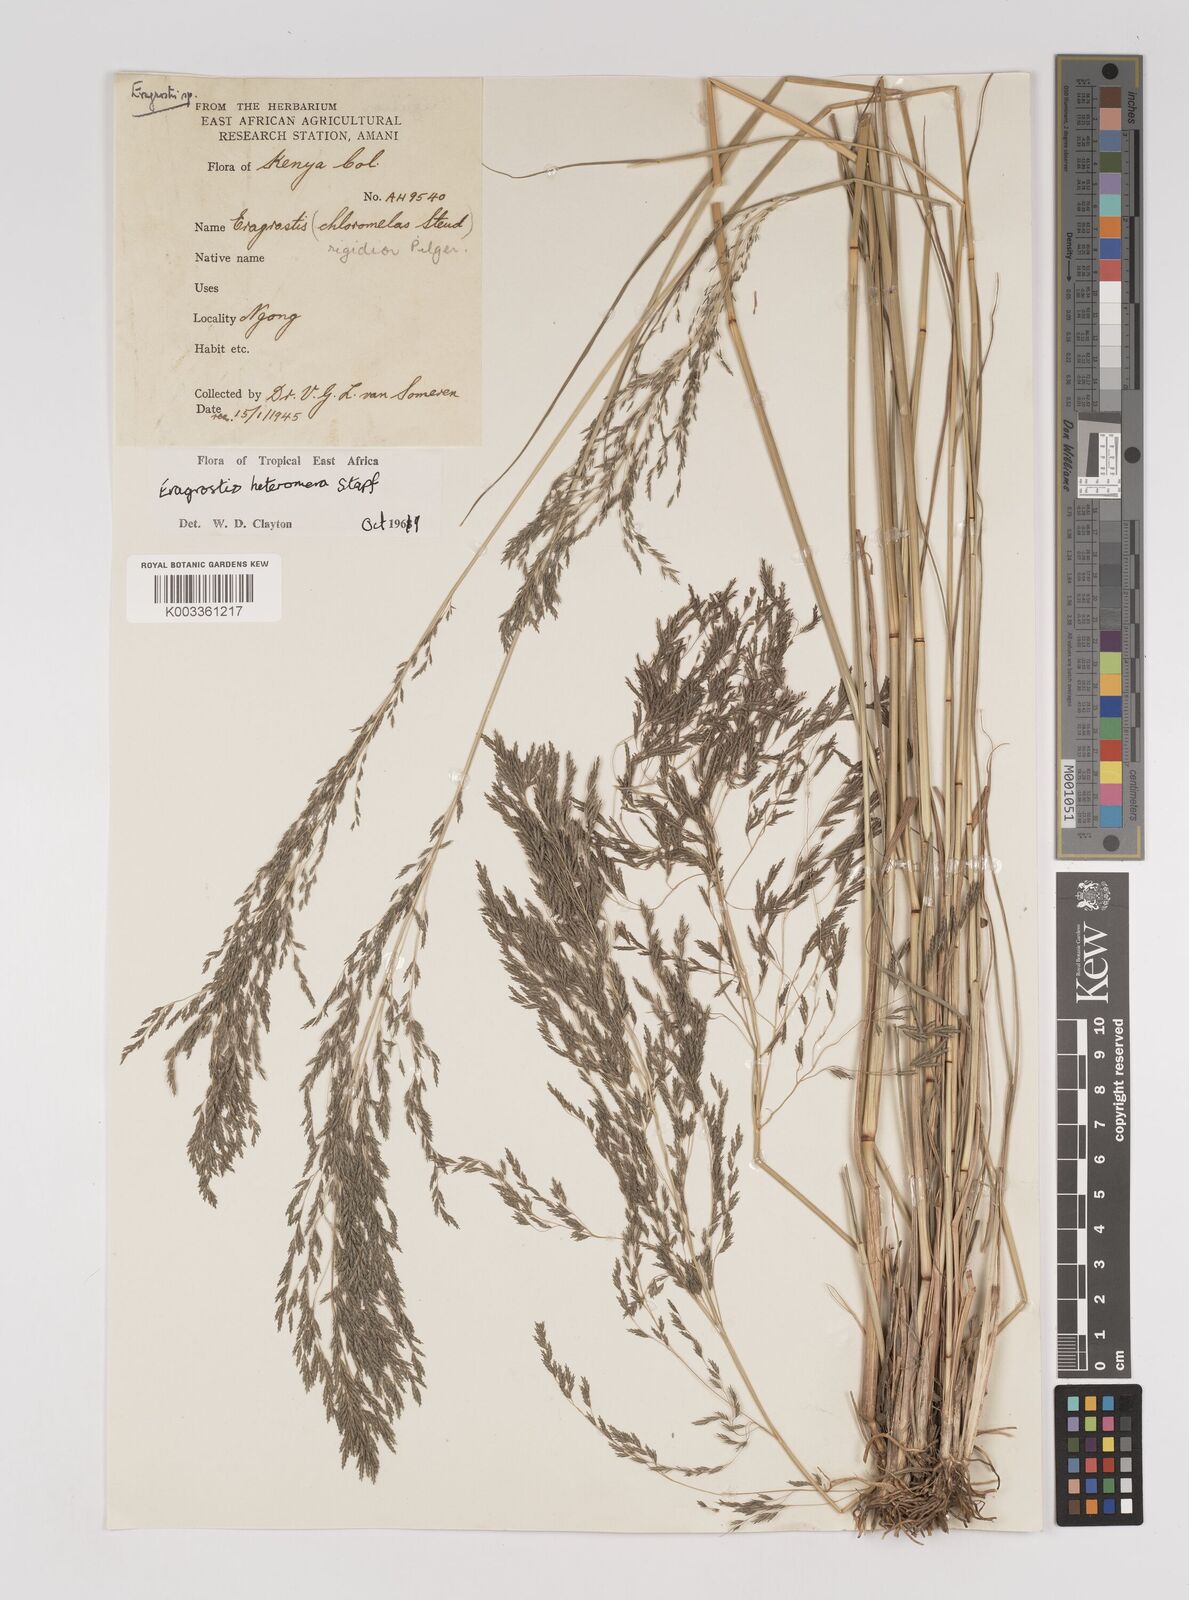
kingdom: Plantae
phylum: Tracheophyta
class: Liliopsida
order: Poales
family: Poaceae
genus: Eragrostis
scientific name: Eragrostis heteromera
